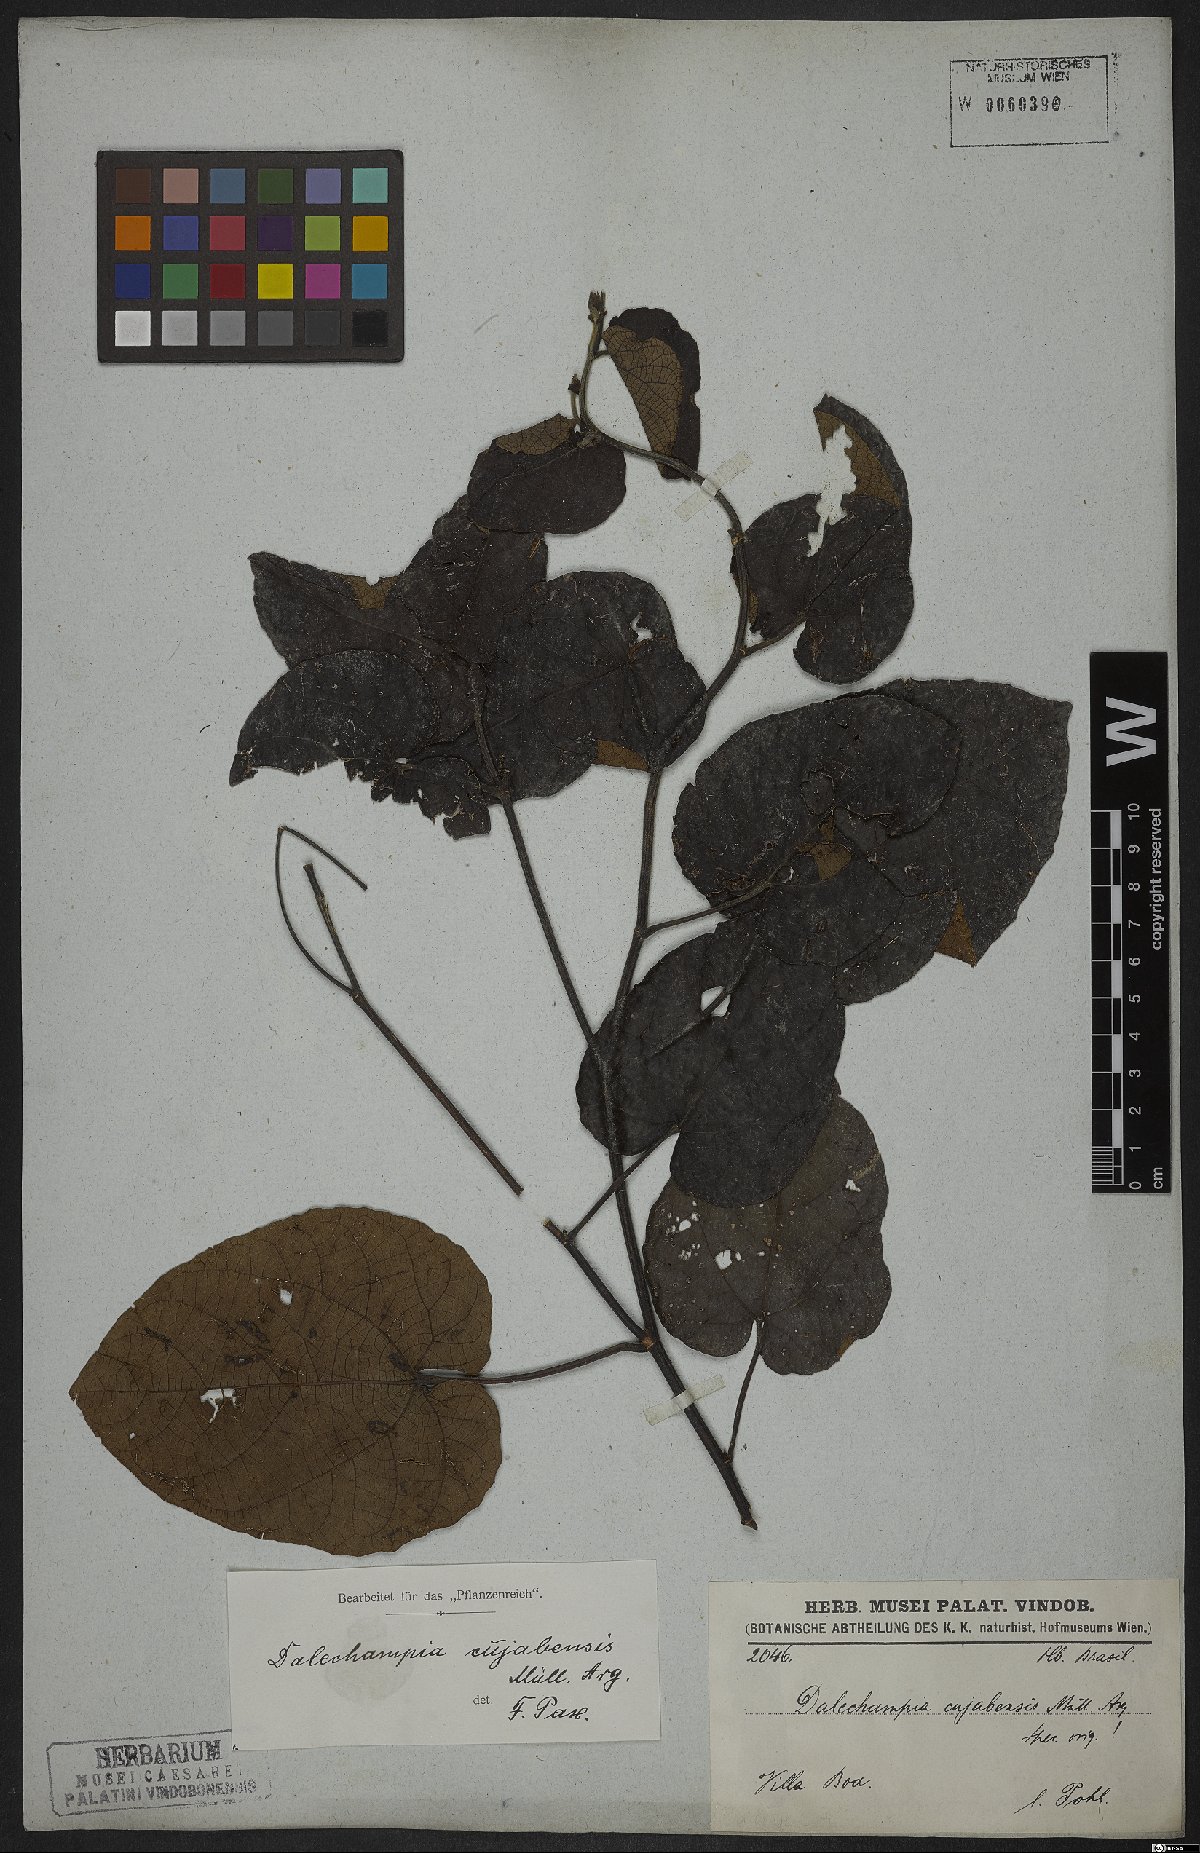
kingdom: Plantae
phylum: Tracheophyta
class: Magnoliopsida
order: Malpighiales
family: Euphorbiaceae
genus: Dalechampia
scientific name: Dalechampia cuyabensis
